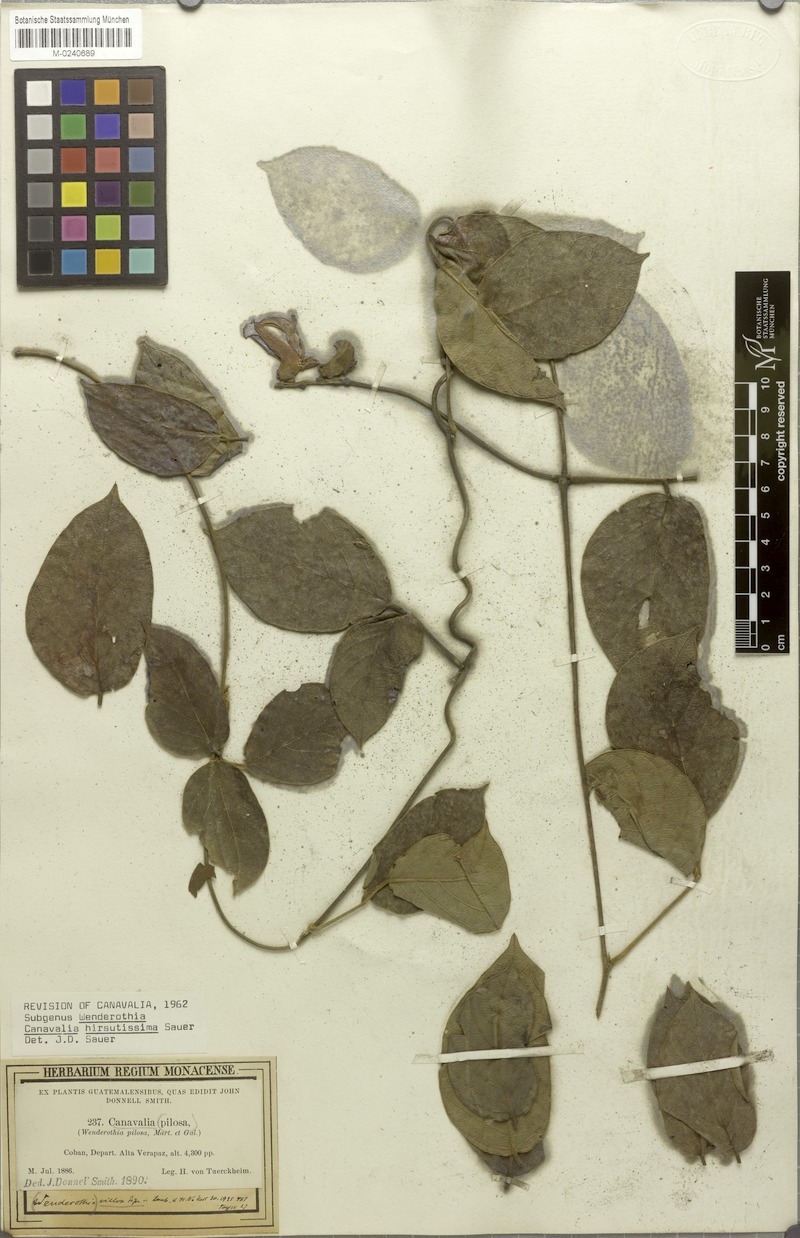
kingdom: Plantae
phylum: Tracheophyta
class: Magnoliopsida
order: Fabales
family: Fabaceae
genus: Canavalia
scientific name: Canavalia hirsutissima
